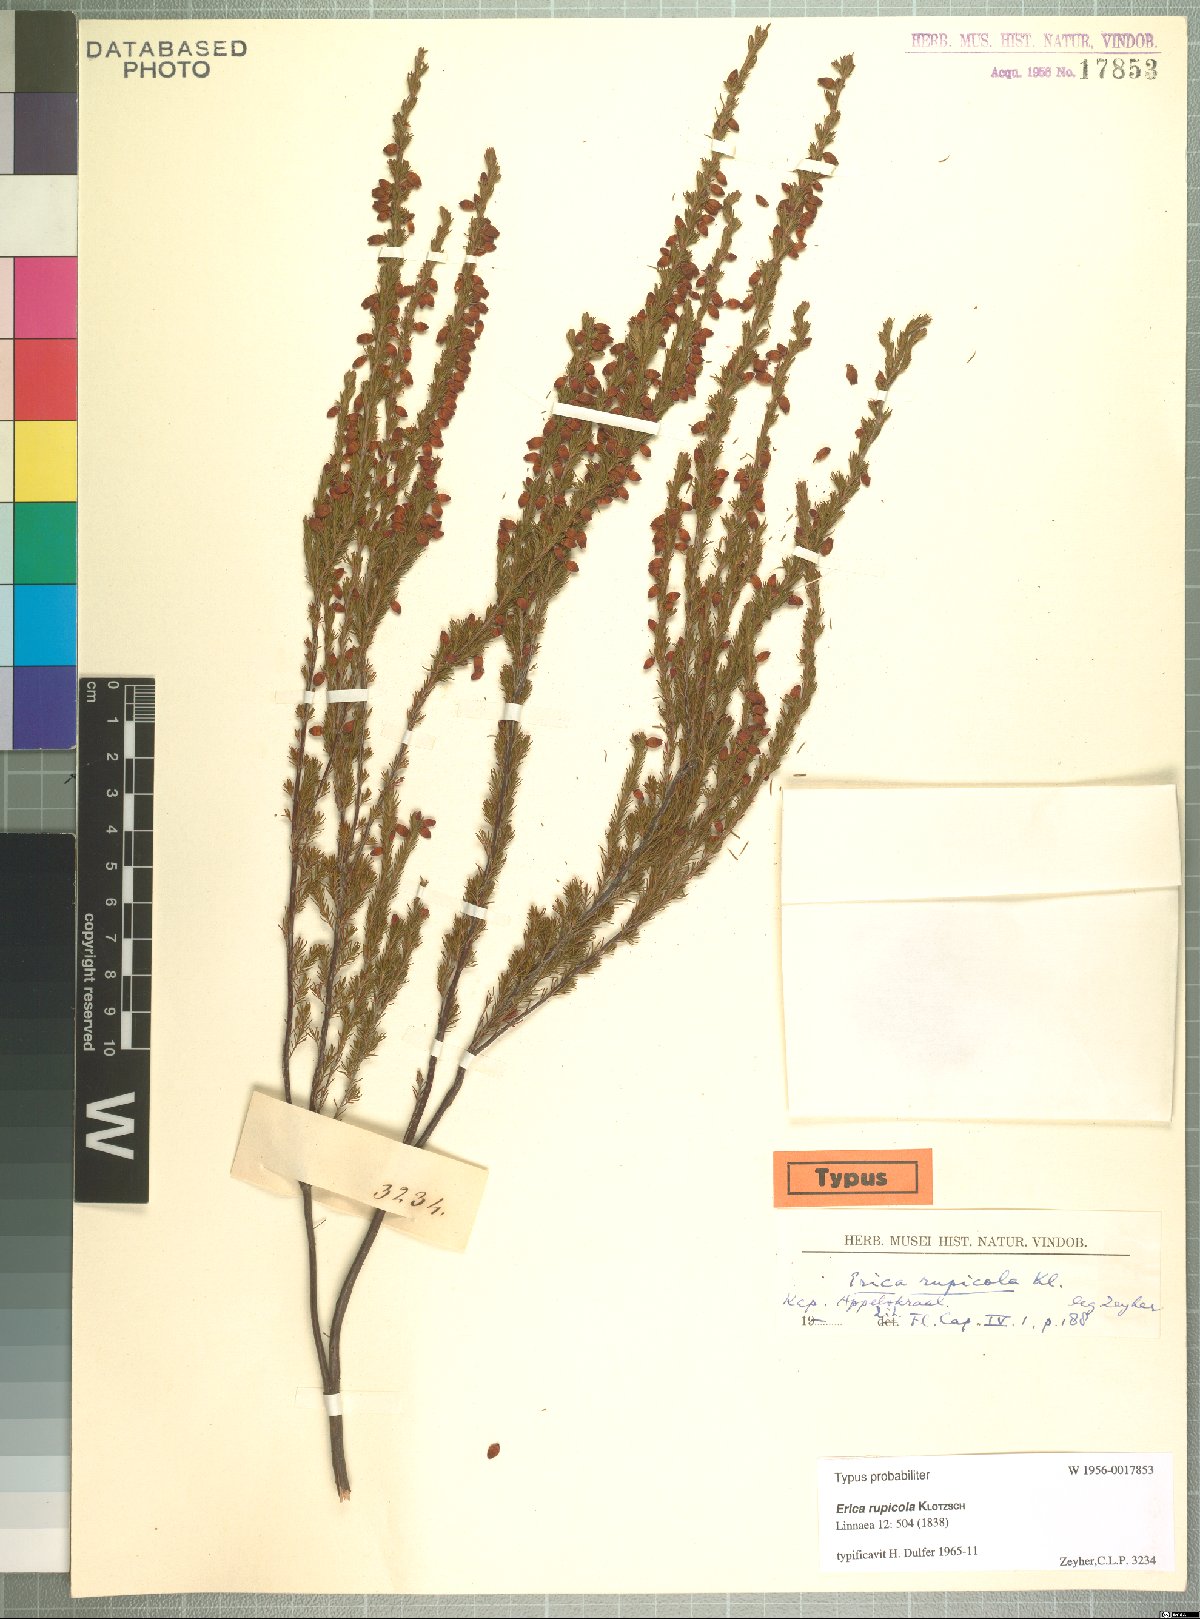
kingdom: Plantae
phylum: Tracheophyta
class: Magnoliopsida
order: Ericales
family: Ericaceae
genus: Erica
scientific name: Erica rupicola
